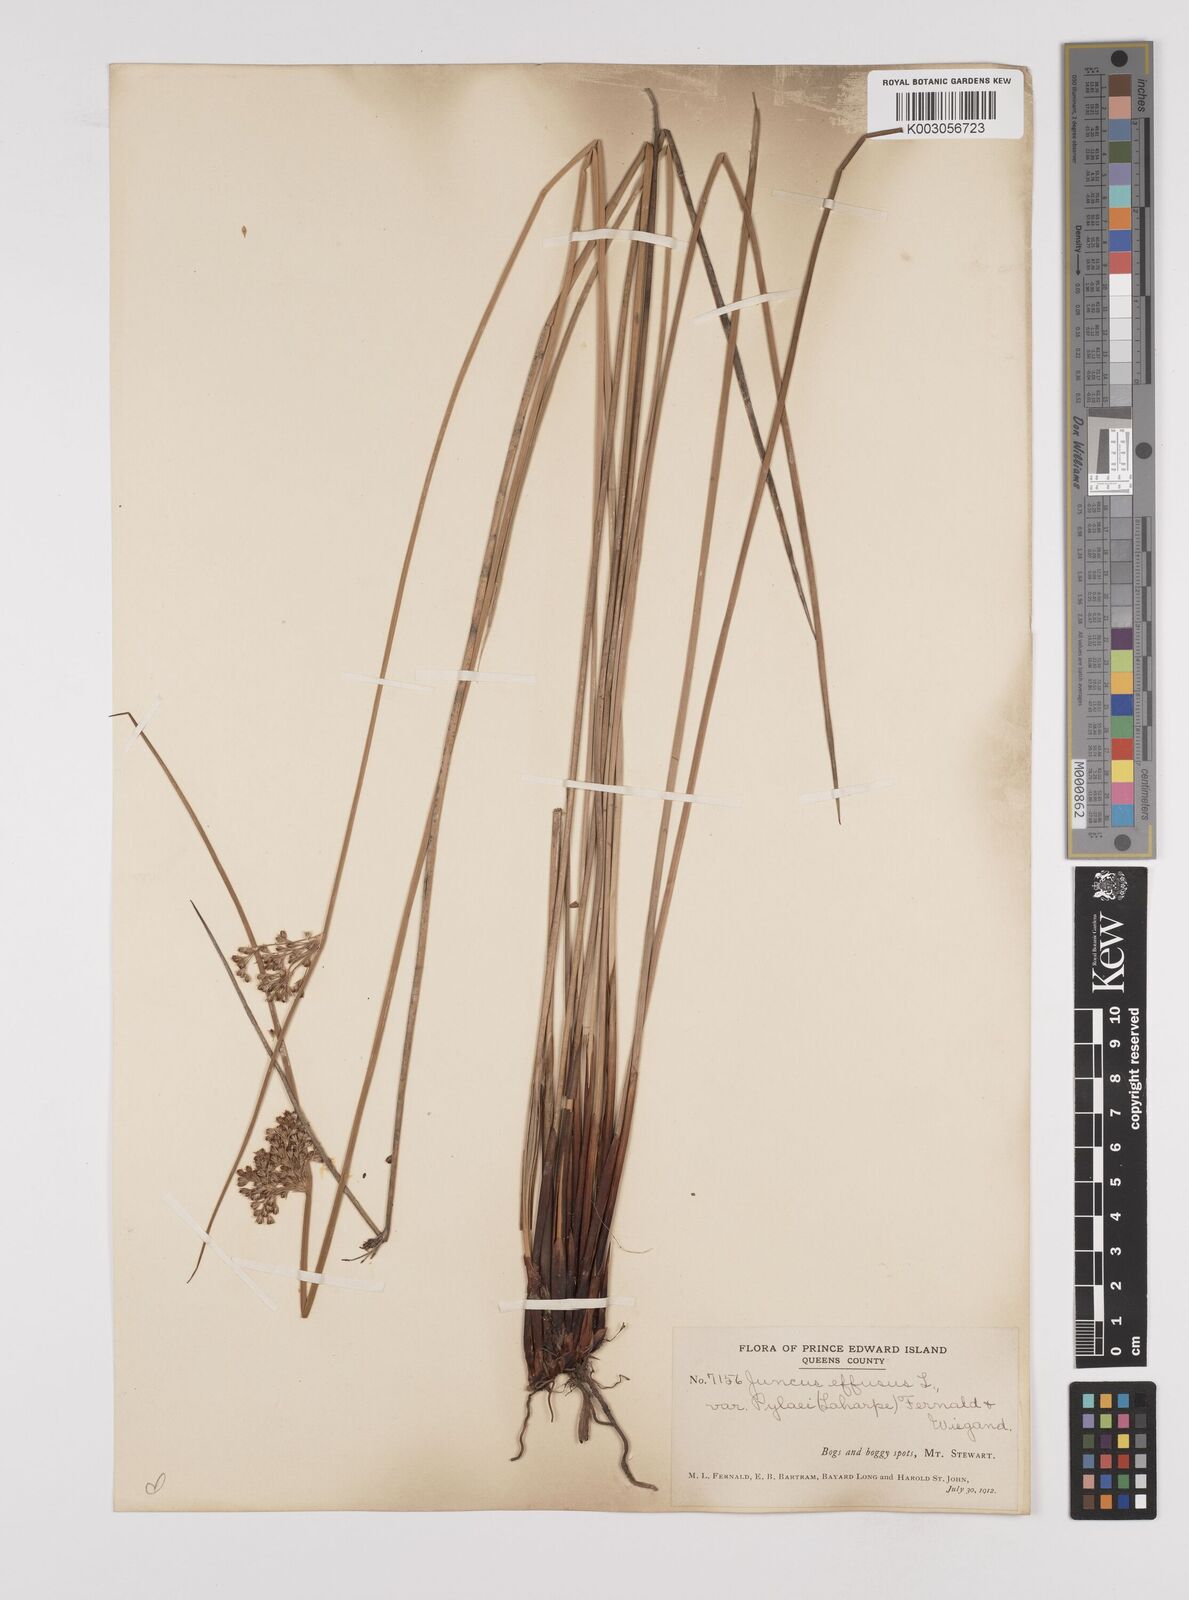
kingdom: Plantae
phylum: Tracheophyta
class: Liliopsida
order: Poales
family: Juncaceae
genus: Juncus
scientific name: Juncus pylaei
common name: Common rush
